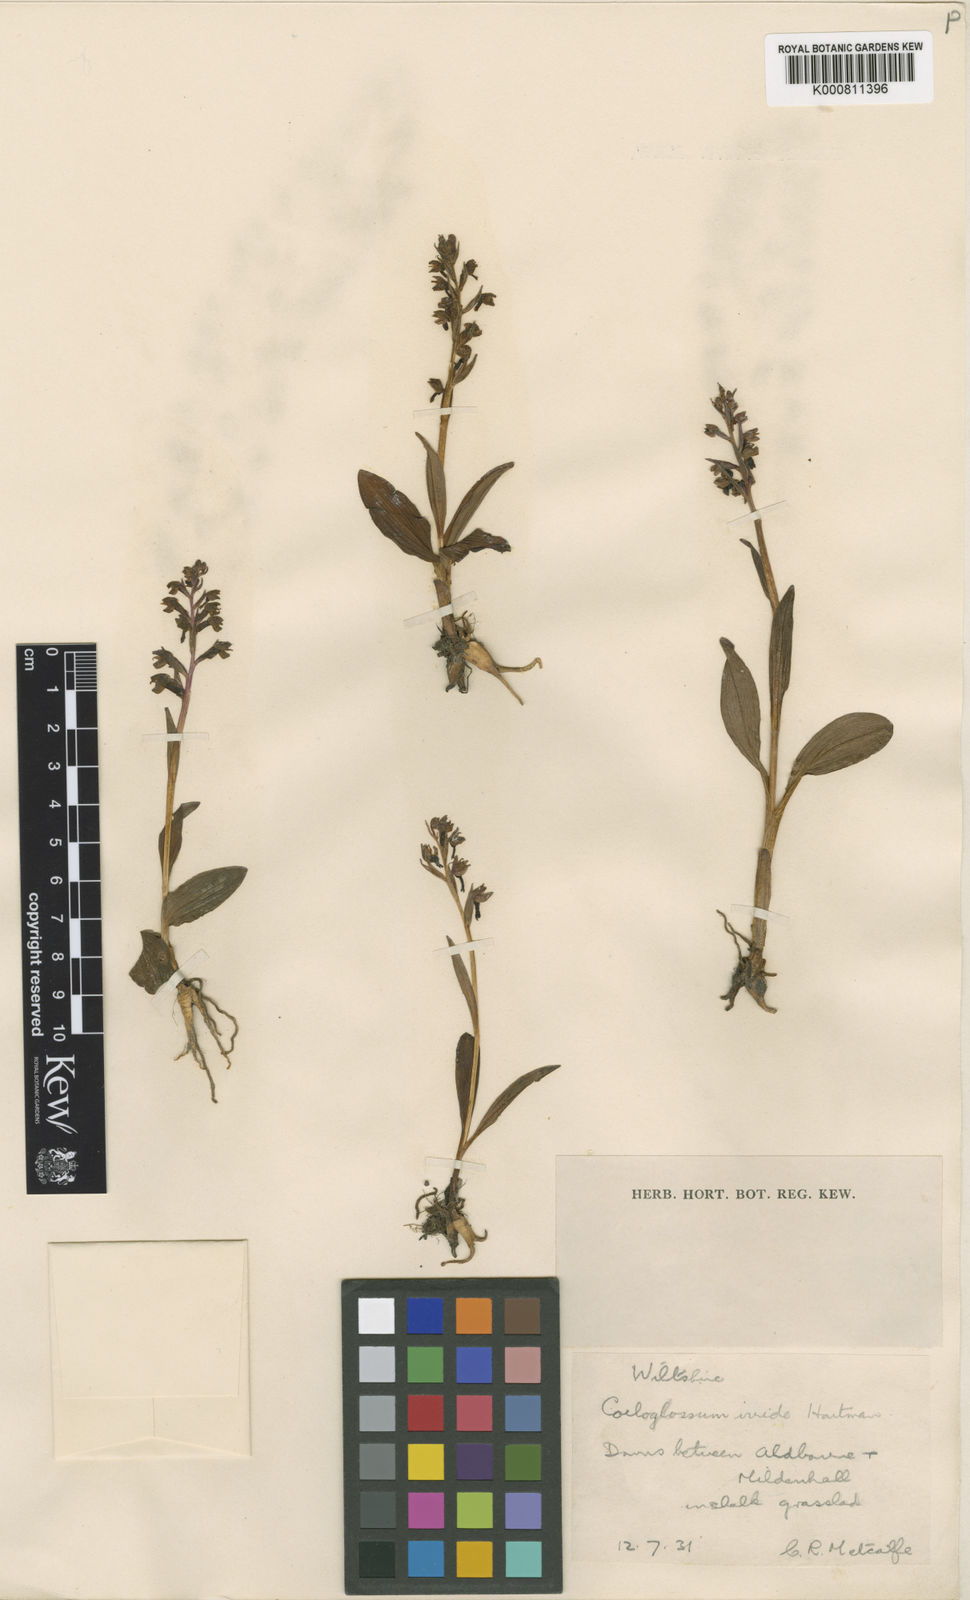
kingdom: Plantae
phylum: Tracheophyta
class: Liliopsida
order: Asparagales
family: Orchidaceae
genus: Dactylorhiza
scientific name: Dactylorhiza viridis
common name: Longbract frog orchid
